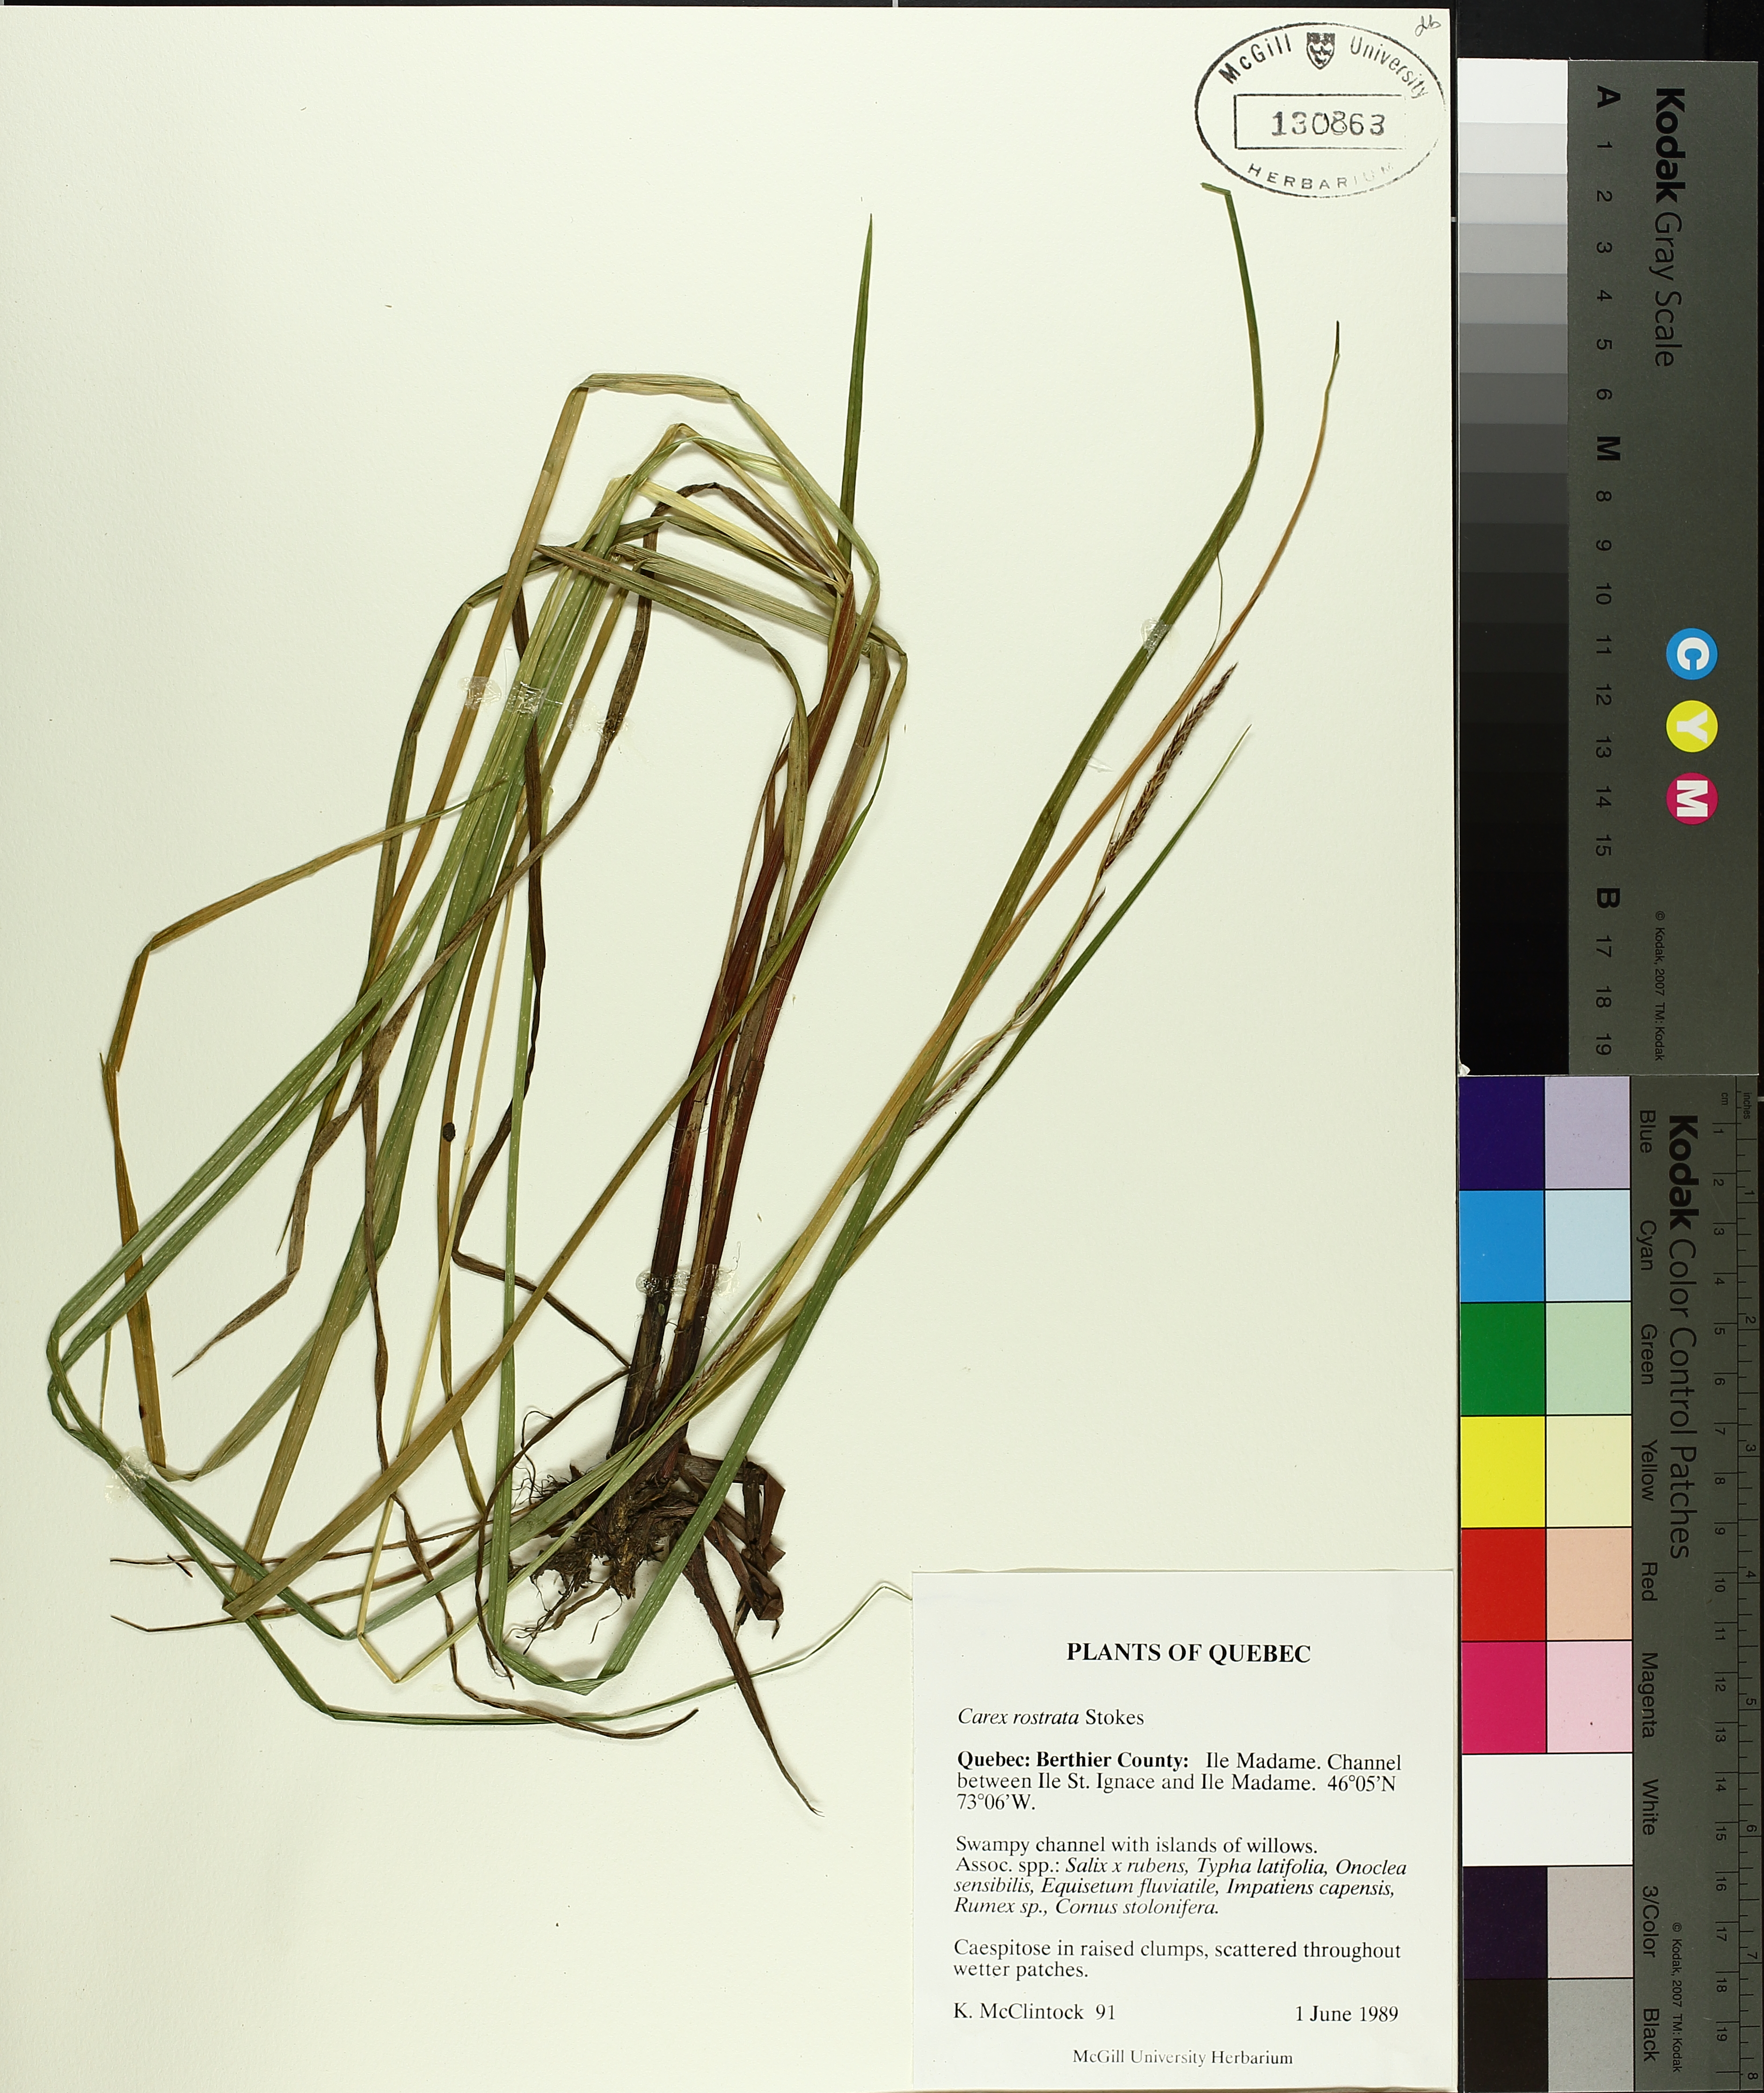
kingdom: Plantae
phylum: Tracheophyta
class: Liliopsida
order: Poales
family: Cyperaceae
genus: Carex
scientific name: Carex rostrata
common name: Bottle sedge
